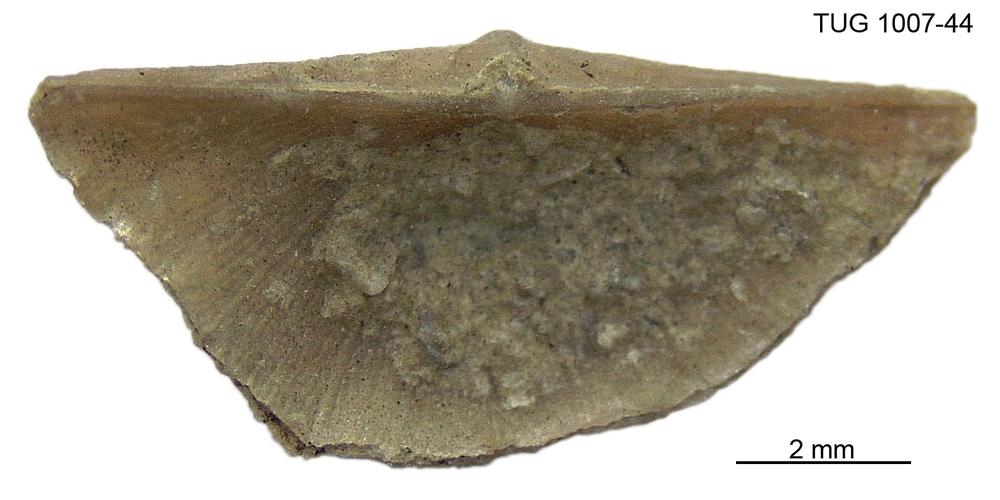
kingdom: Animalia
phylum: Brachiopoda
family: Oldhaminidae
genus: Eoplectodonta
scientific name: Eoplectodonta
